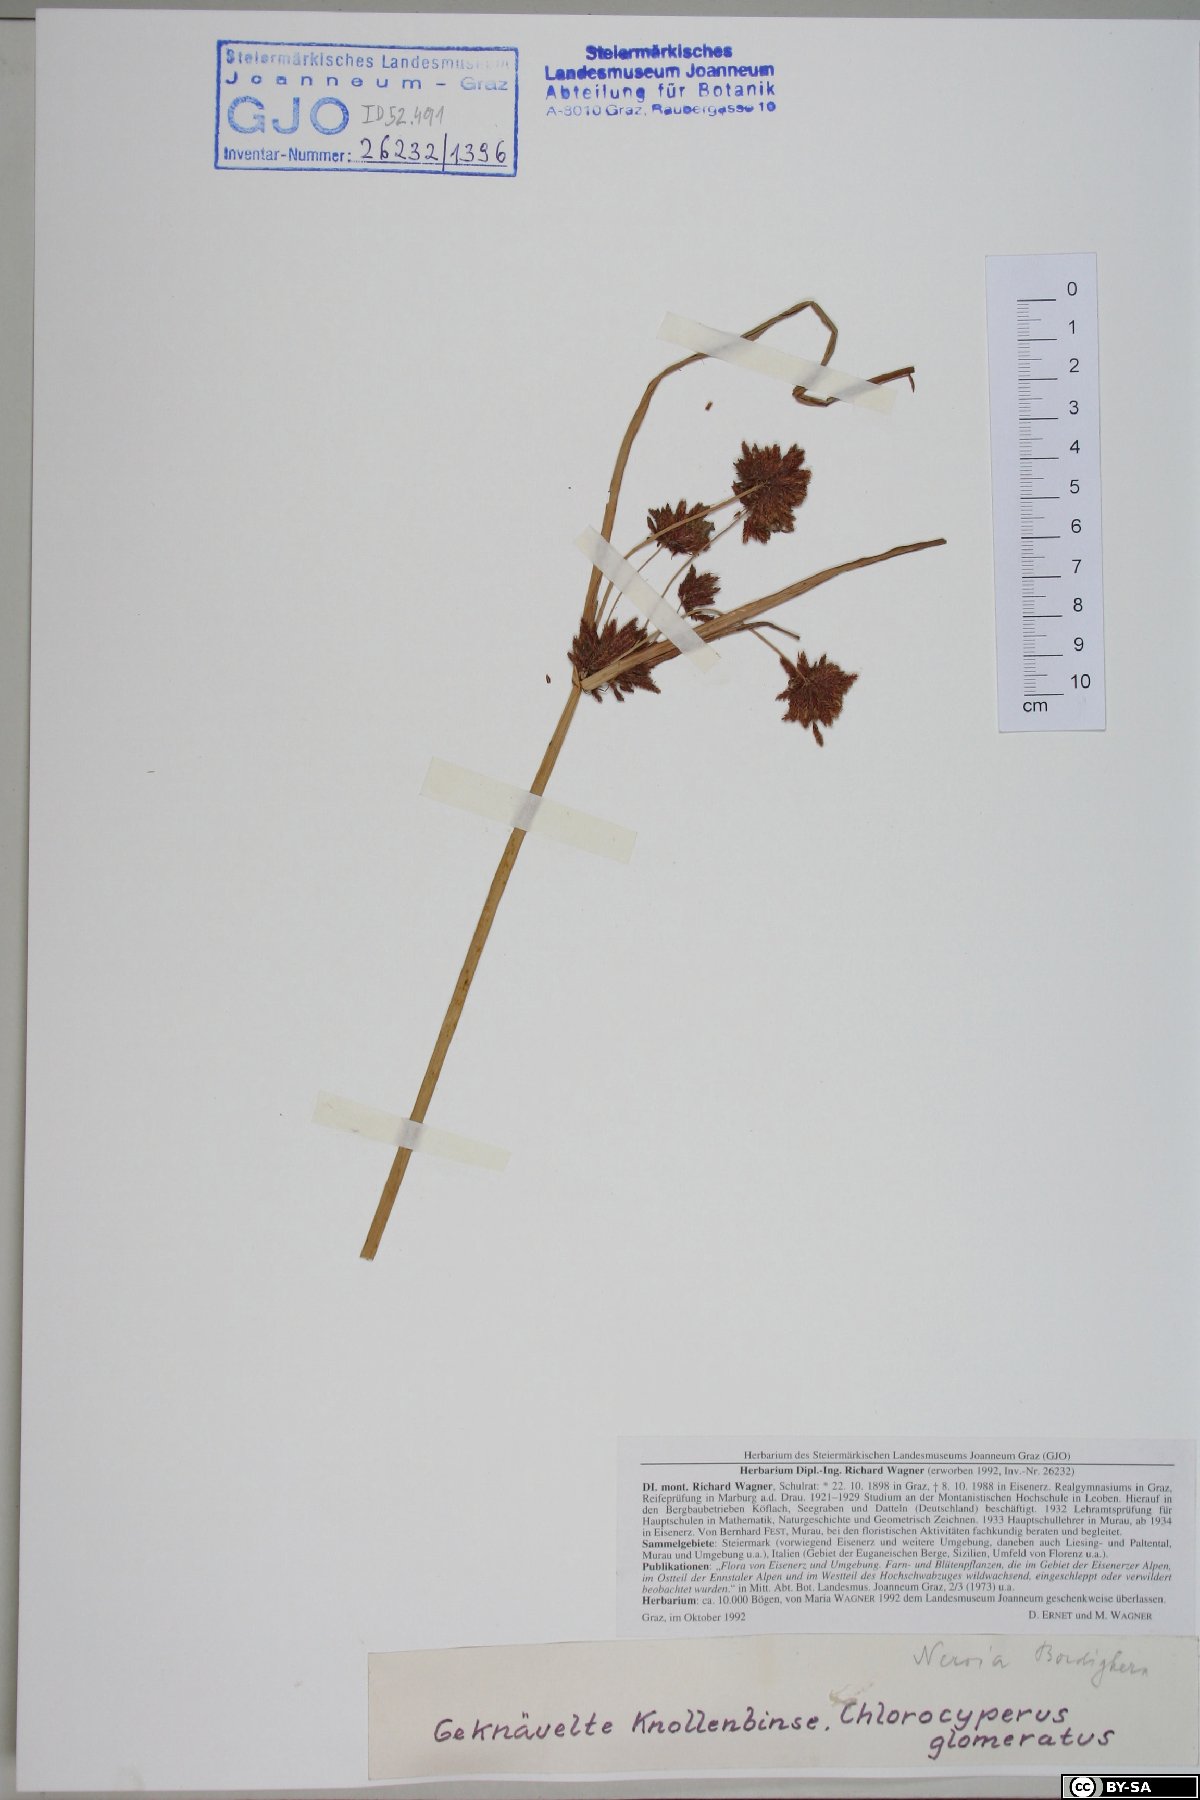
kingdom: Plantae
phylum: Tracheophyta
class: Liliopsida
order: Poales
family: Cyperaceae
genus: Cyperus
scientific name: Cyperus glomeratus
